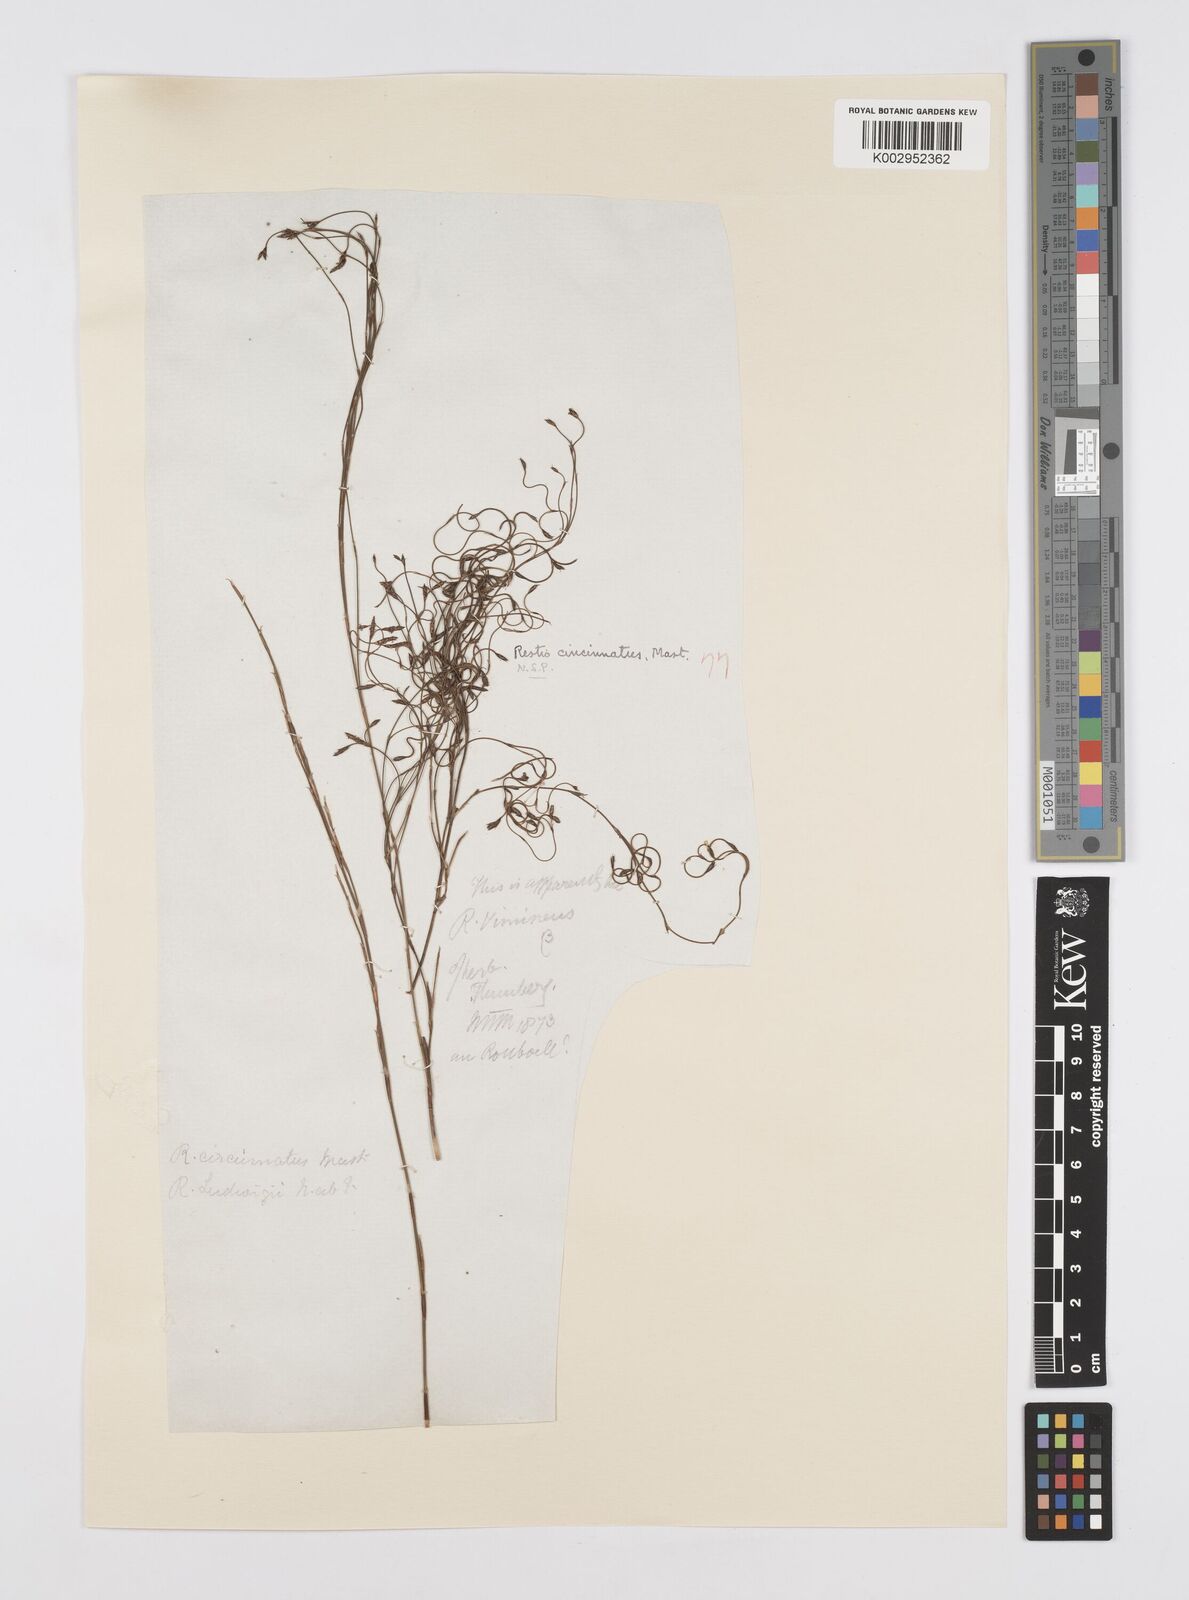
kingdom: Plantae
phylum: Tracheophyta
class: Liliopsida
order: Poales
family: Restionaceae
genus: Restio
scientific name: Restio cincinnatus
